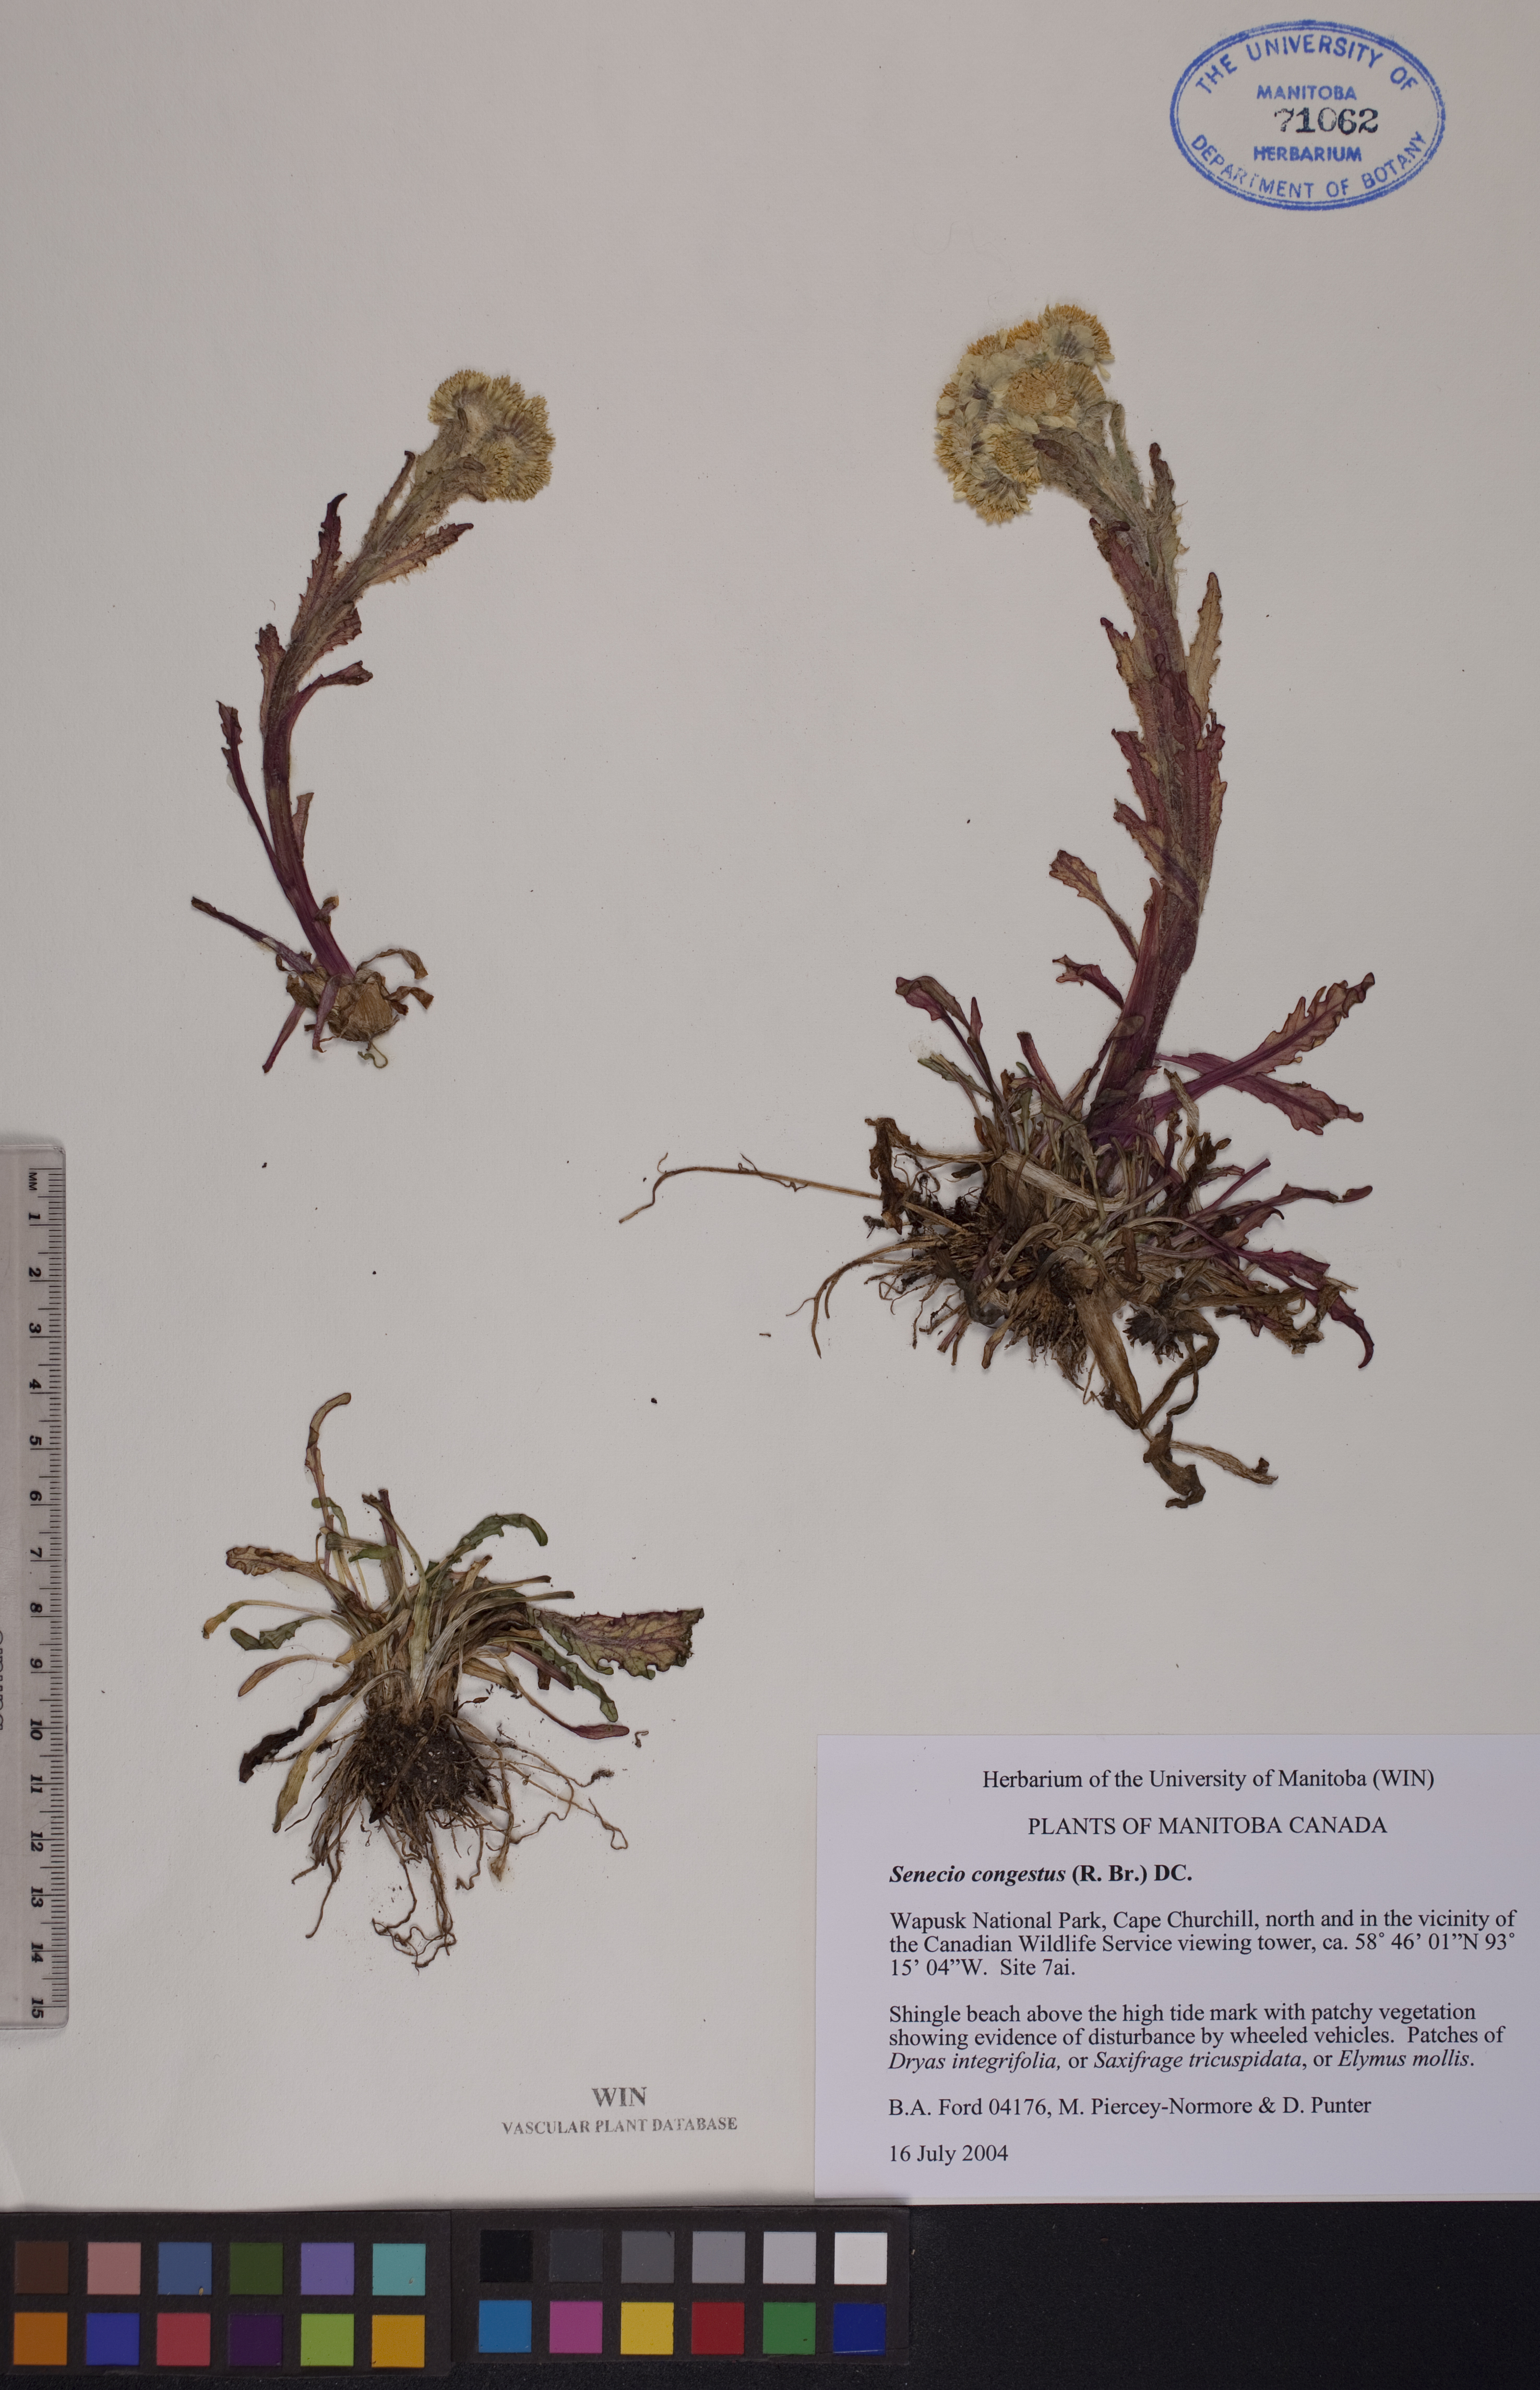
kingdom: Plantae
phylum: Tracheophyta
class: Magnoliopsida
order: Asterales
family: Asteraceae
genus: Tephroseris
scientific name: Tephroseris palustris
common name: Marsh fleawort
